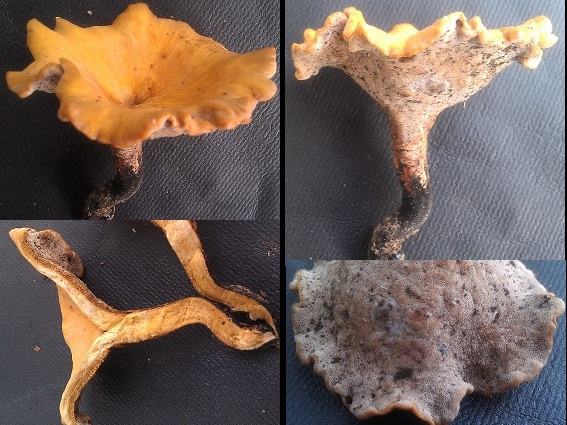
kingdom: Fungi
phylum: Basidiomycota
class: Agaricomycetes
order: Polyporales
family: Polyporaceae
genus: Cerioporus
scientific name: Cerioporus varius
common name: foranderlig stilkporesvamp
